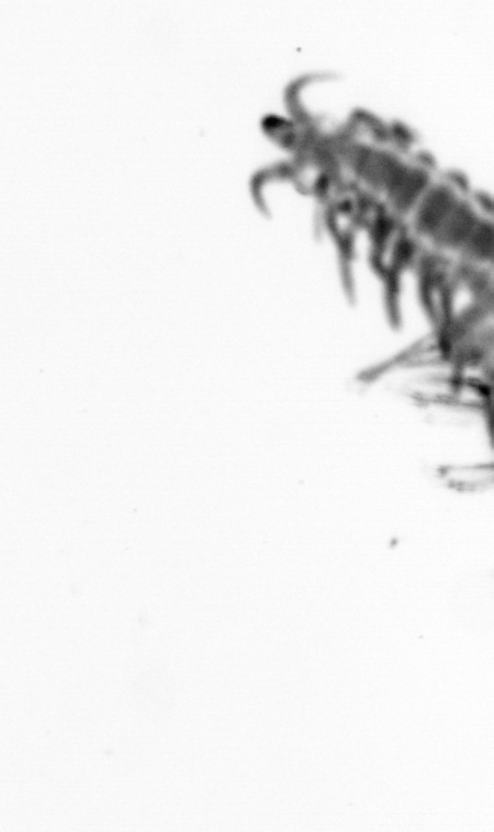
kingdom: Animalia
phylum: Annelida
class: Polychaeta
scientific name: Polychaeta
